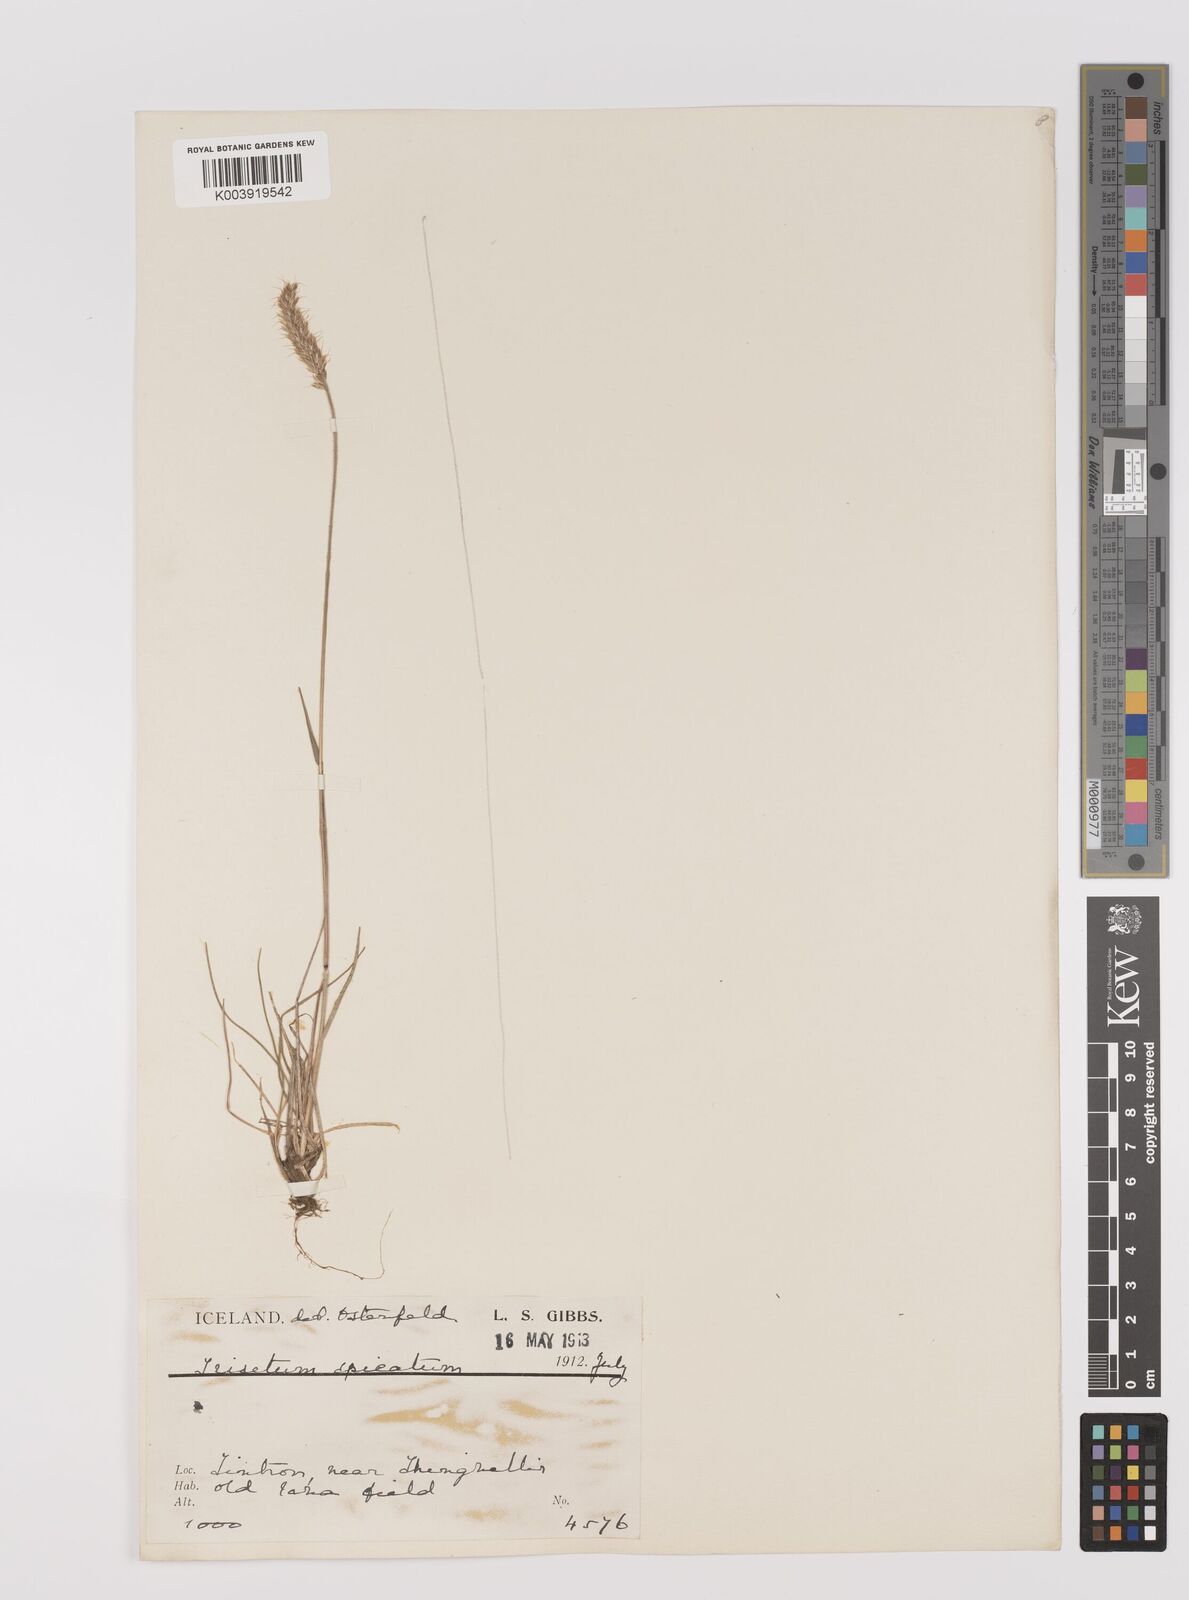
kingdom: Plantae
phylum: Tracheophyta
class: Liliopsida
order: Poales
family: Poaceae
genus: Koeleria
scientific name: Koeleria spicata
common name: Mountain trisetum
